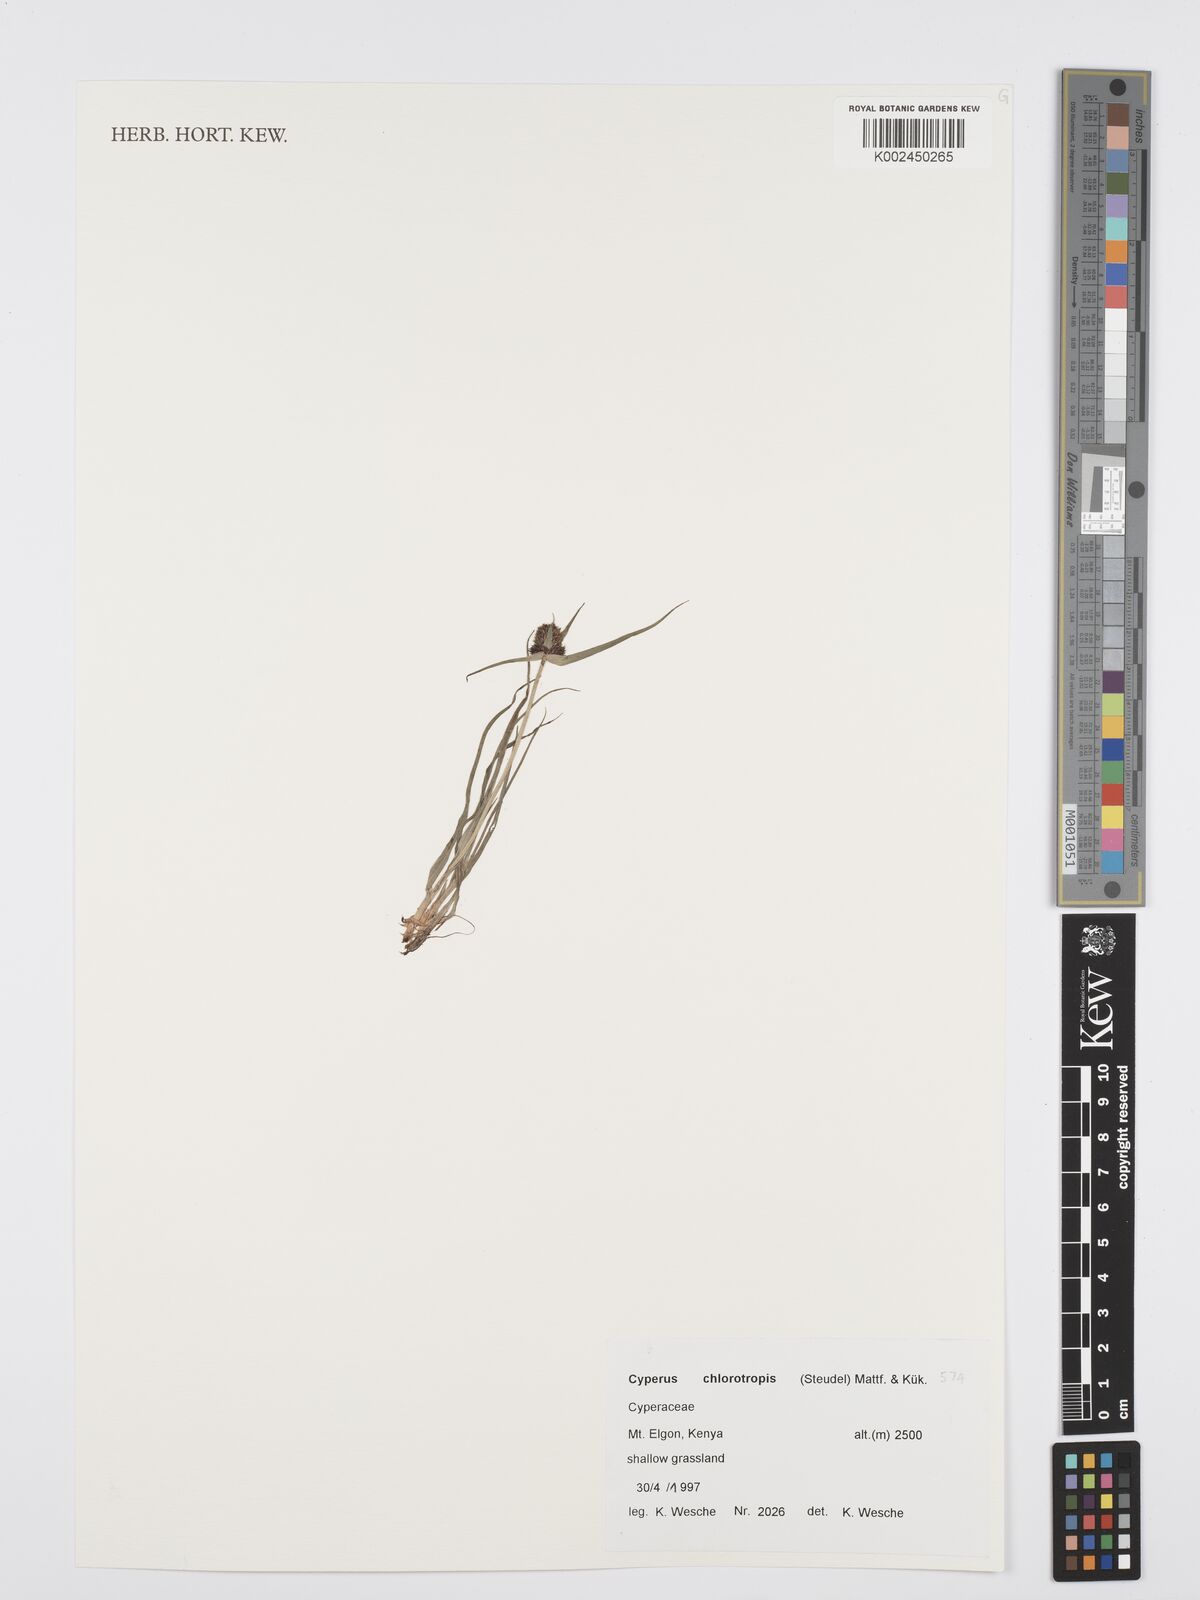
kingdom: Plantae
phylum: Tracheophyta
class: Liliopsida
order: Poales
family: Cyperaceae
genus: Cyperus
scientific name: Cyperus
